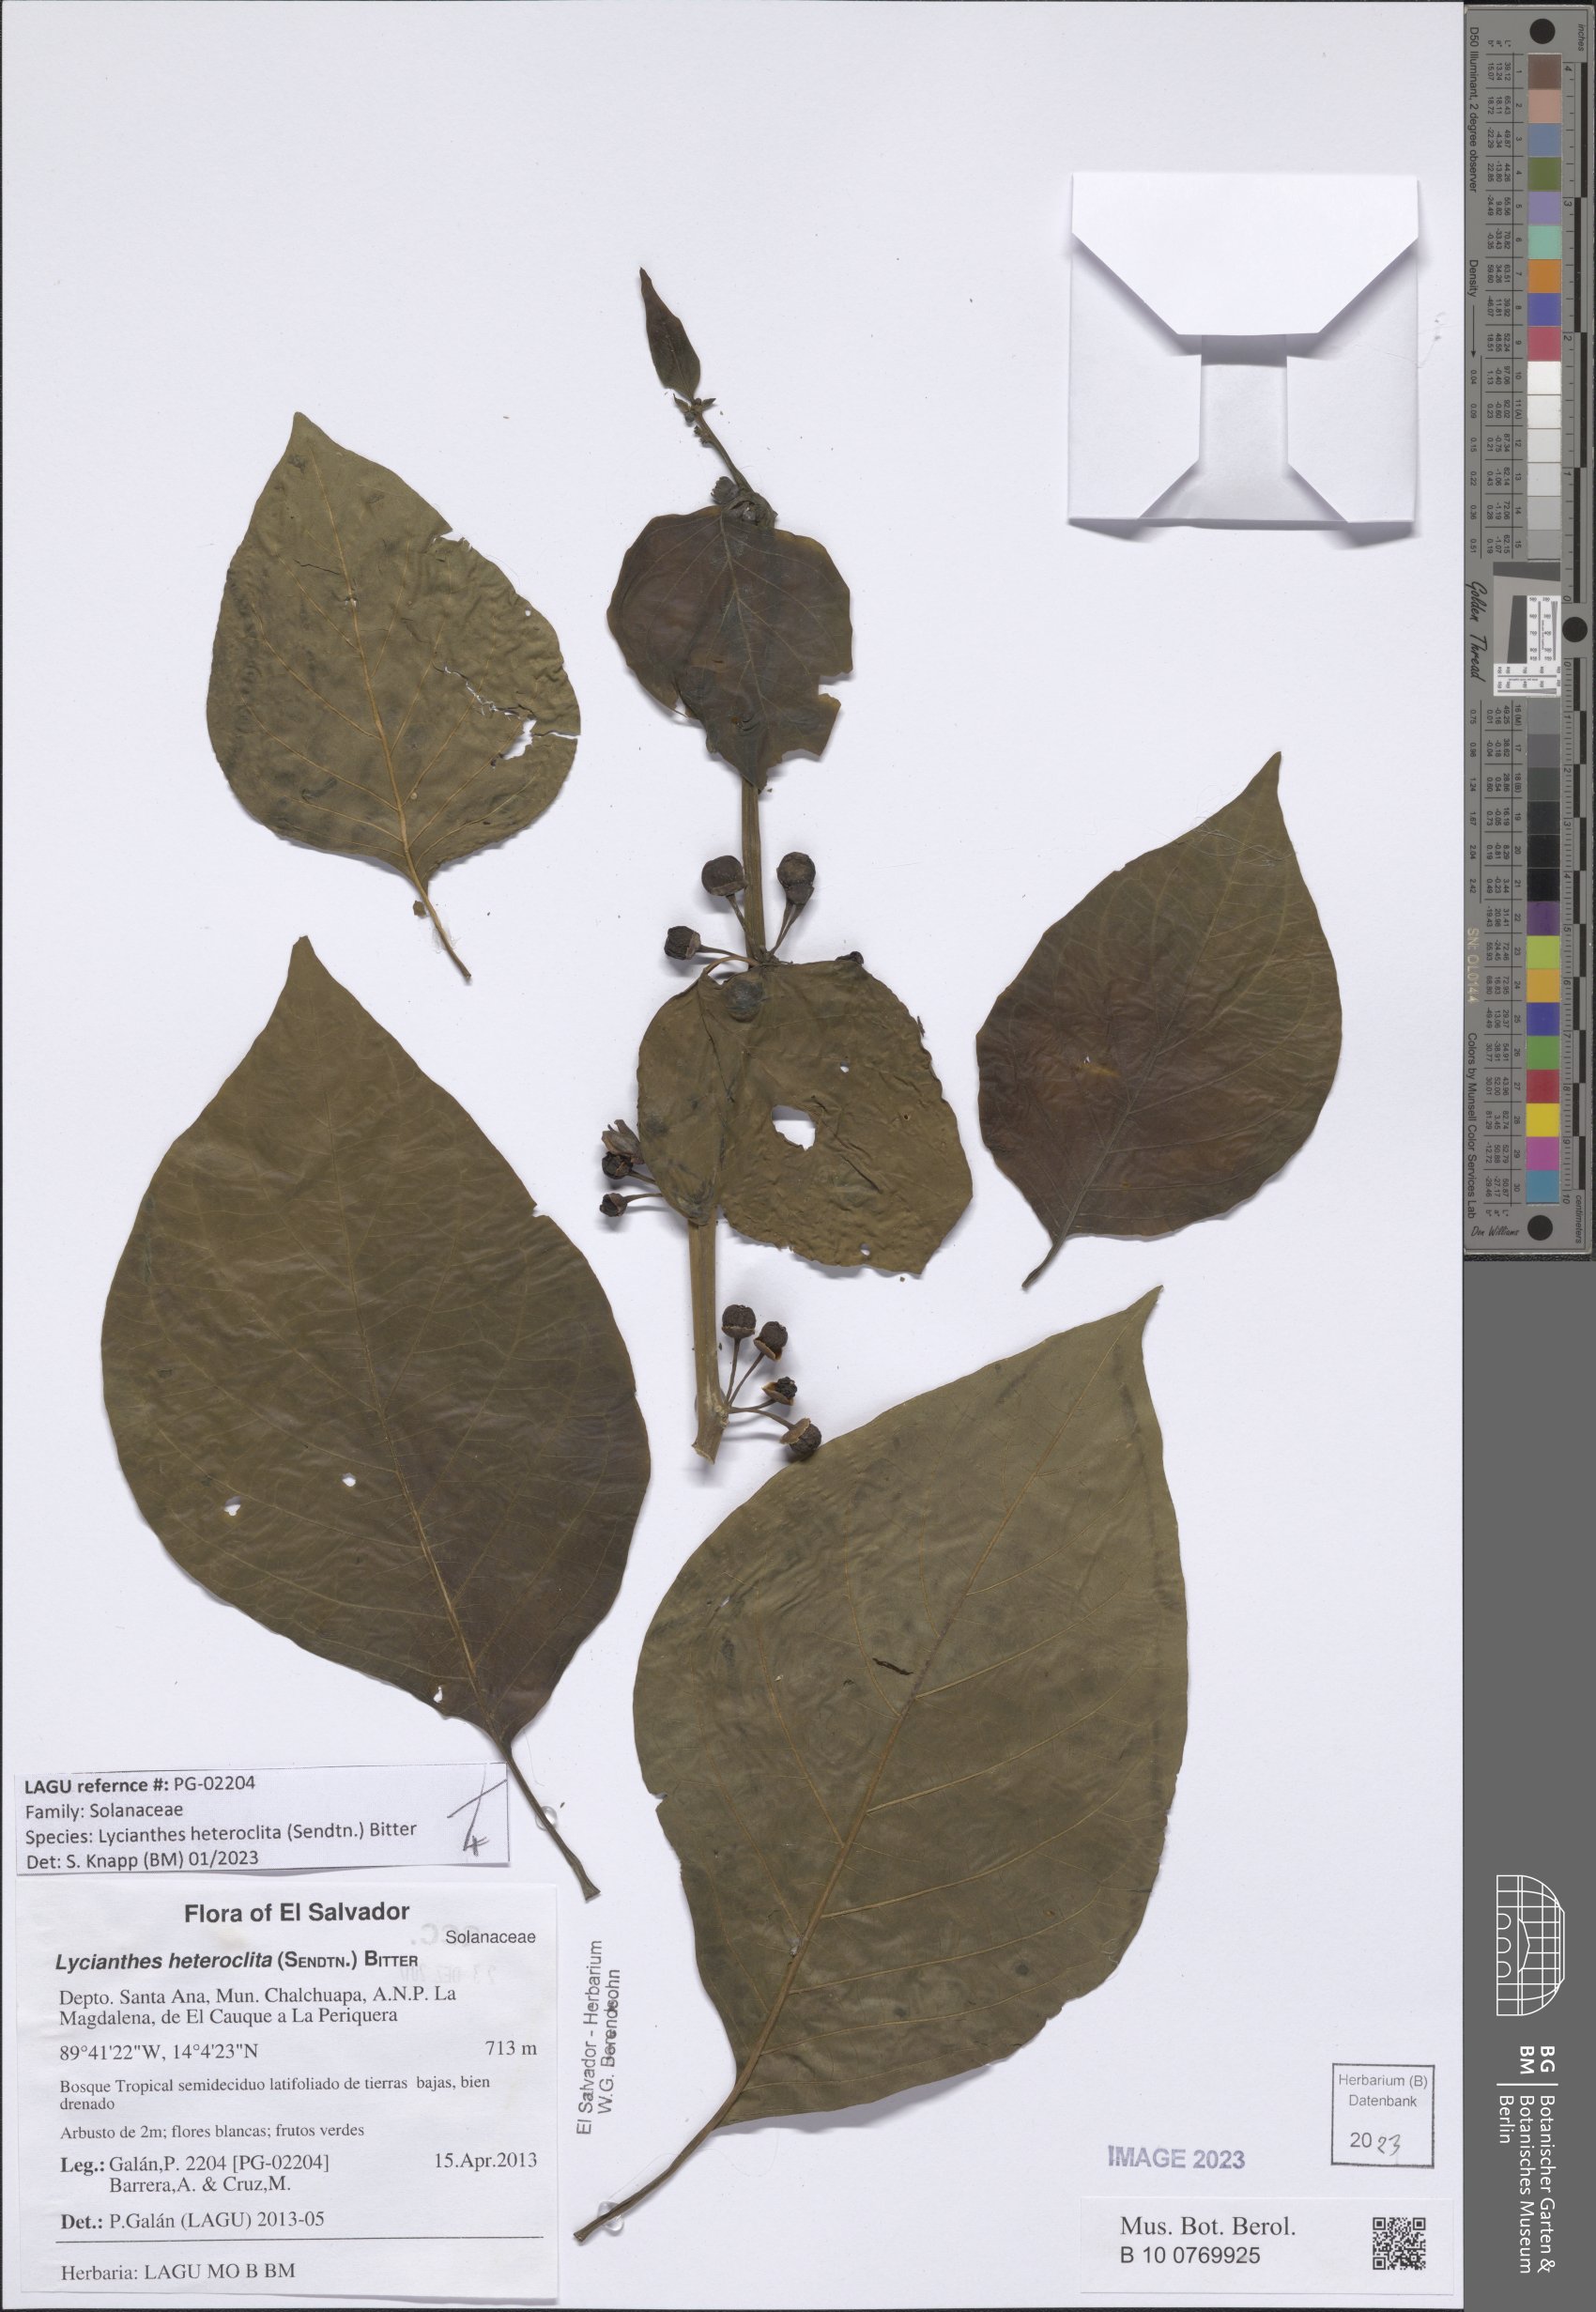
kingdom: Plantae
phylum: Tracheophyta
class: Magnoliopsida
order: Solanales
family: Solanaceae
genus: Lycianthes
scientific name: Lycianthes heteroclita
